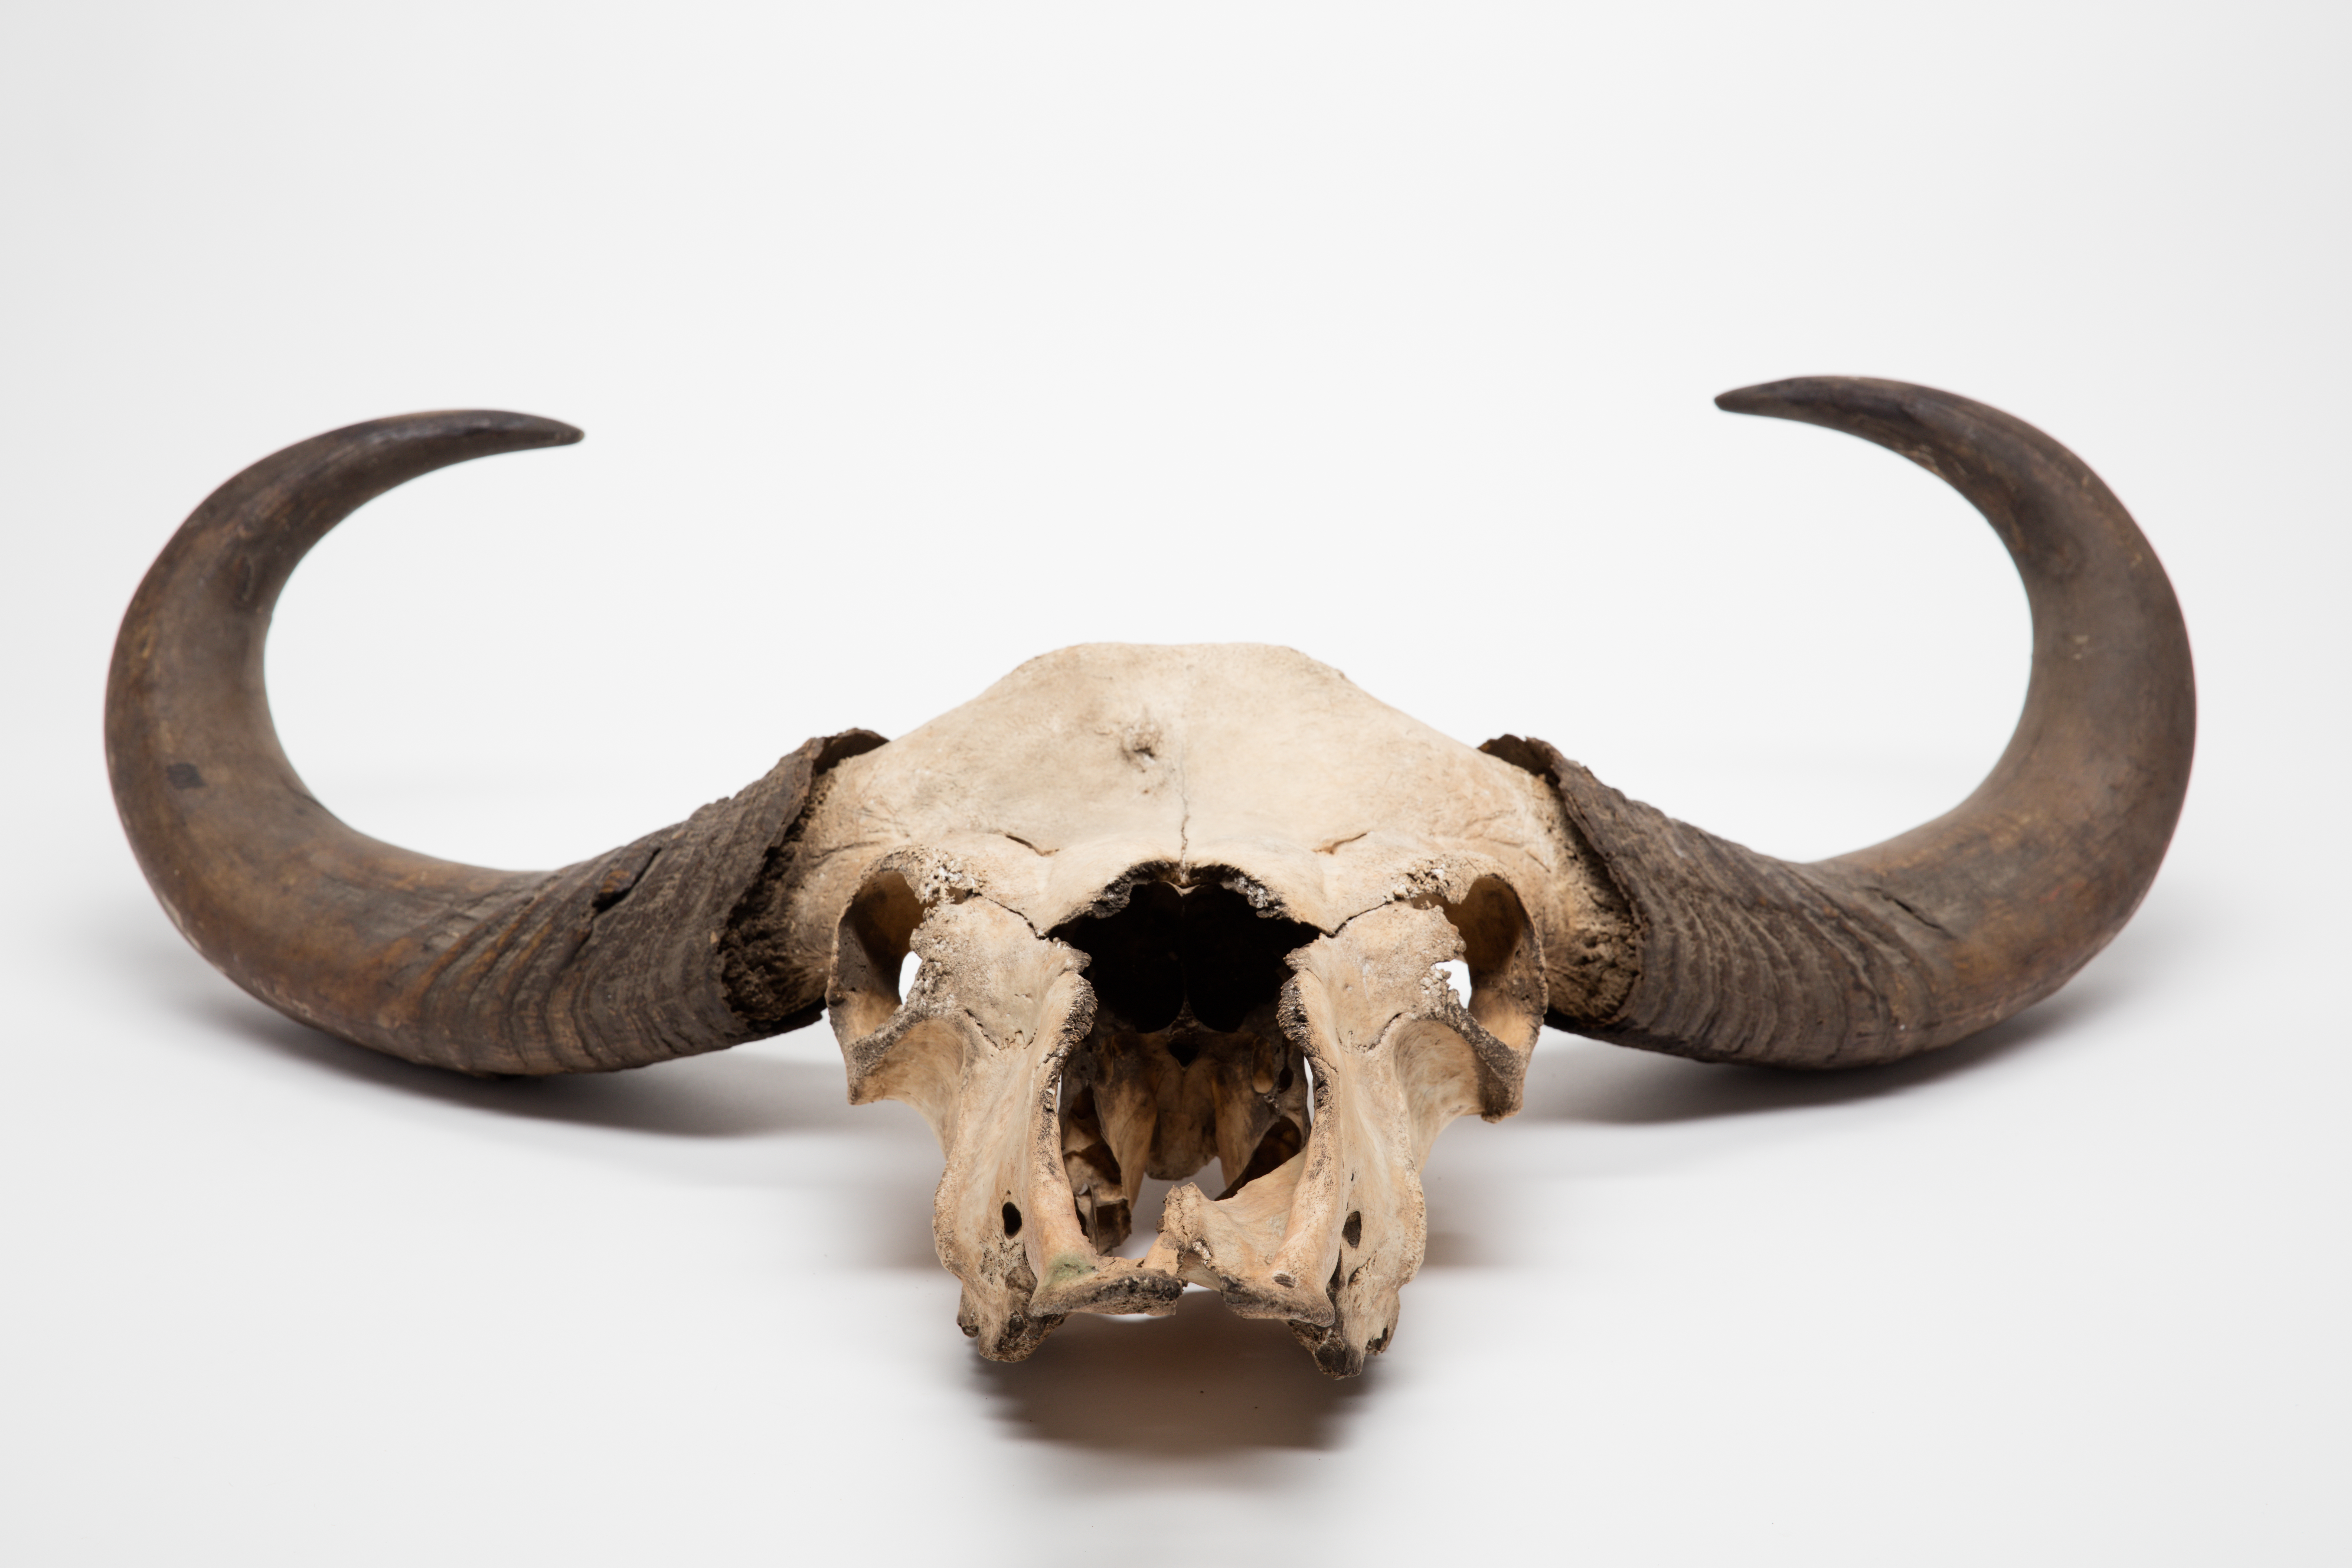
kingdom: Animalia
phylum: Chordata
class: Mammalia
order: Artiodactyla
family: Bovidae
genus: Bos
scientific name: Bos frontalis
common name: Gaur
